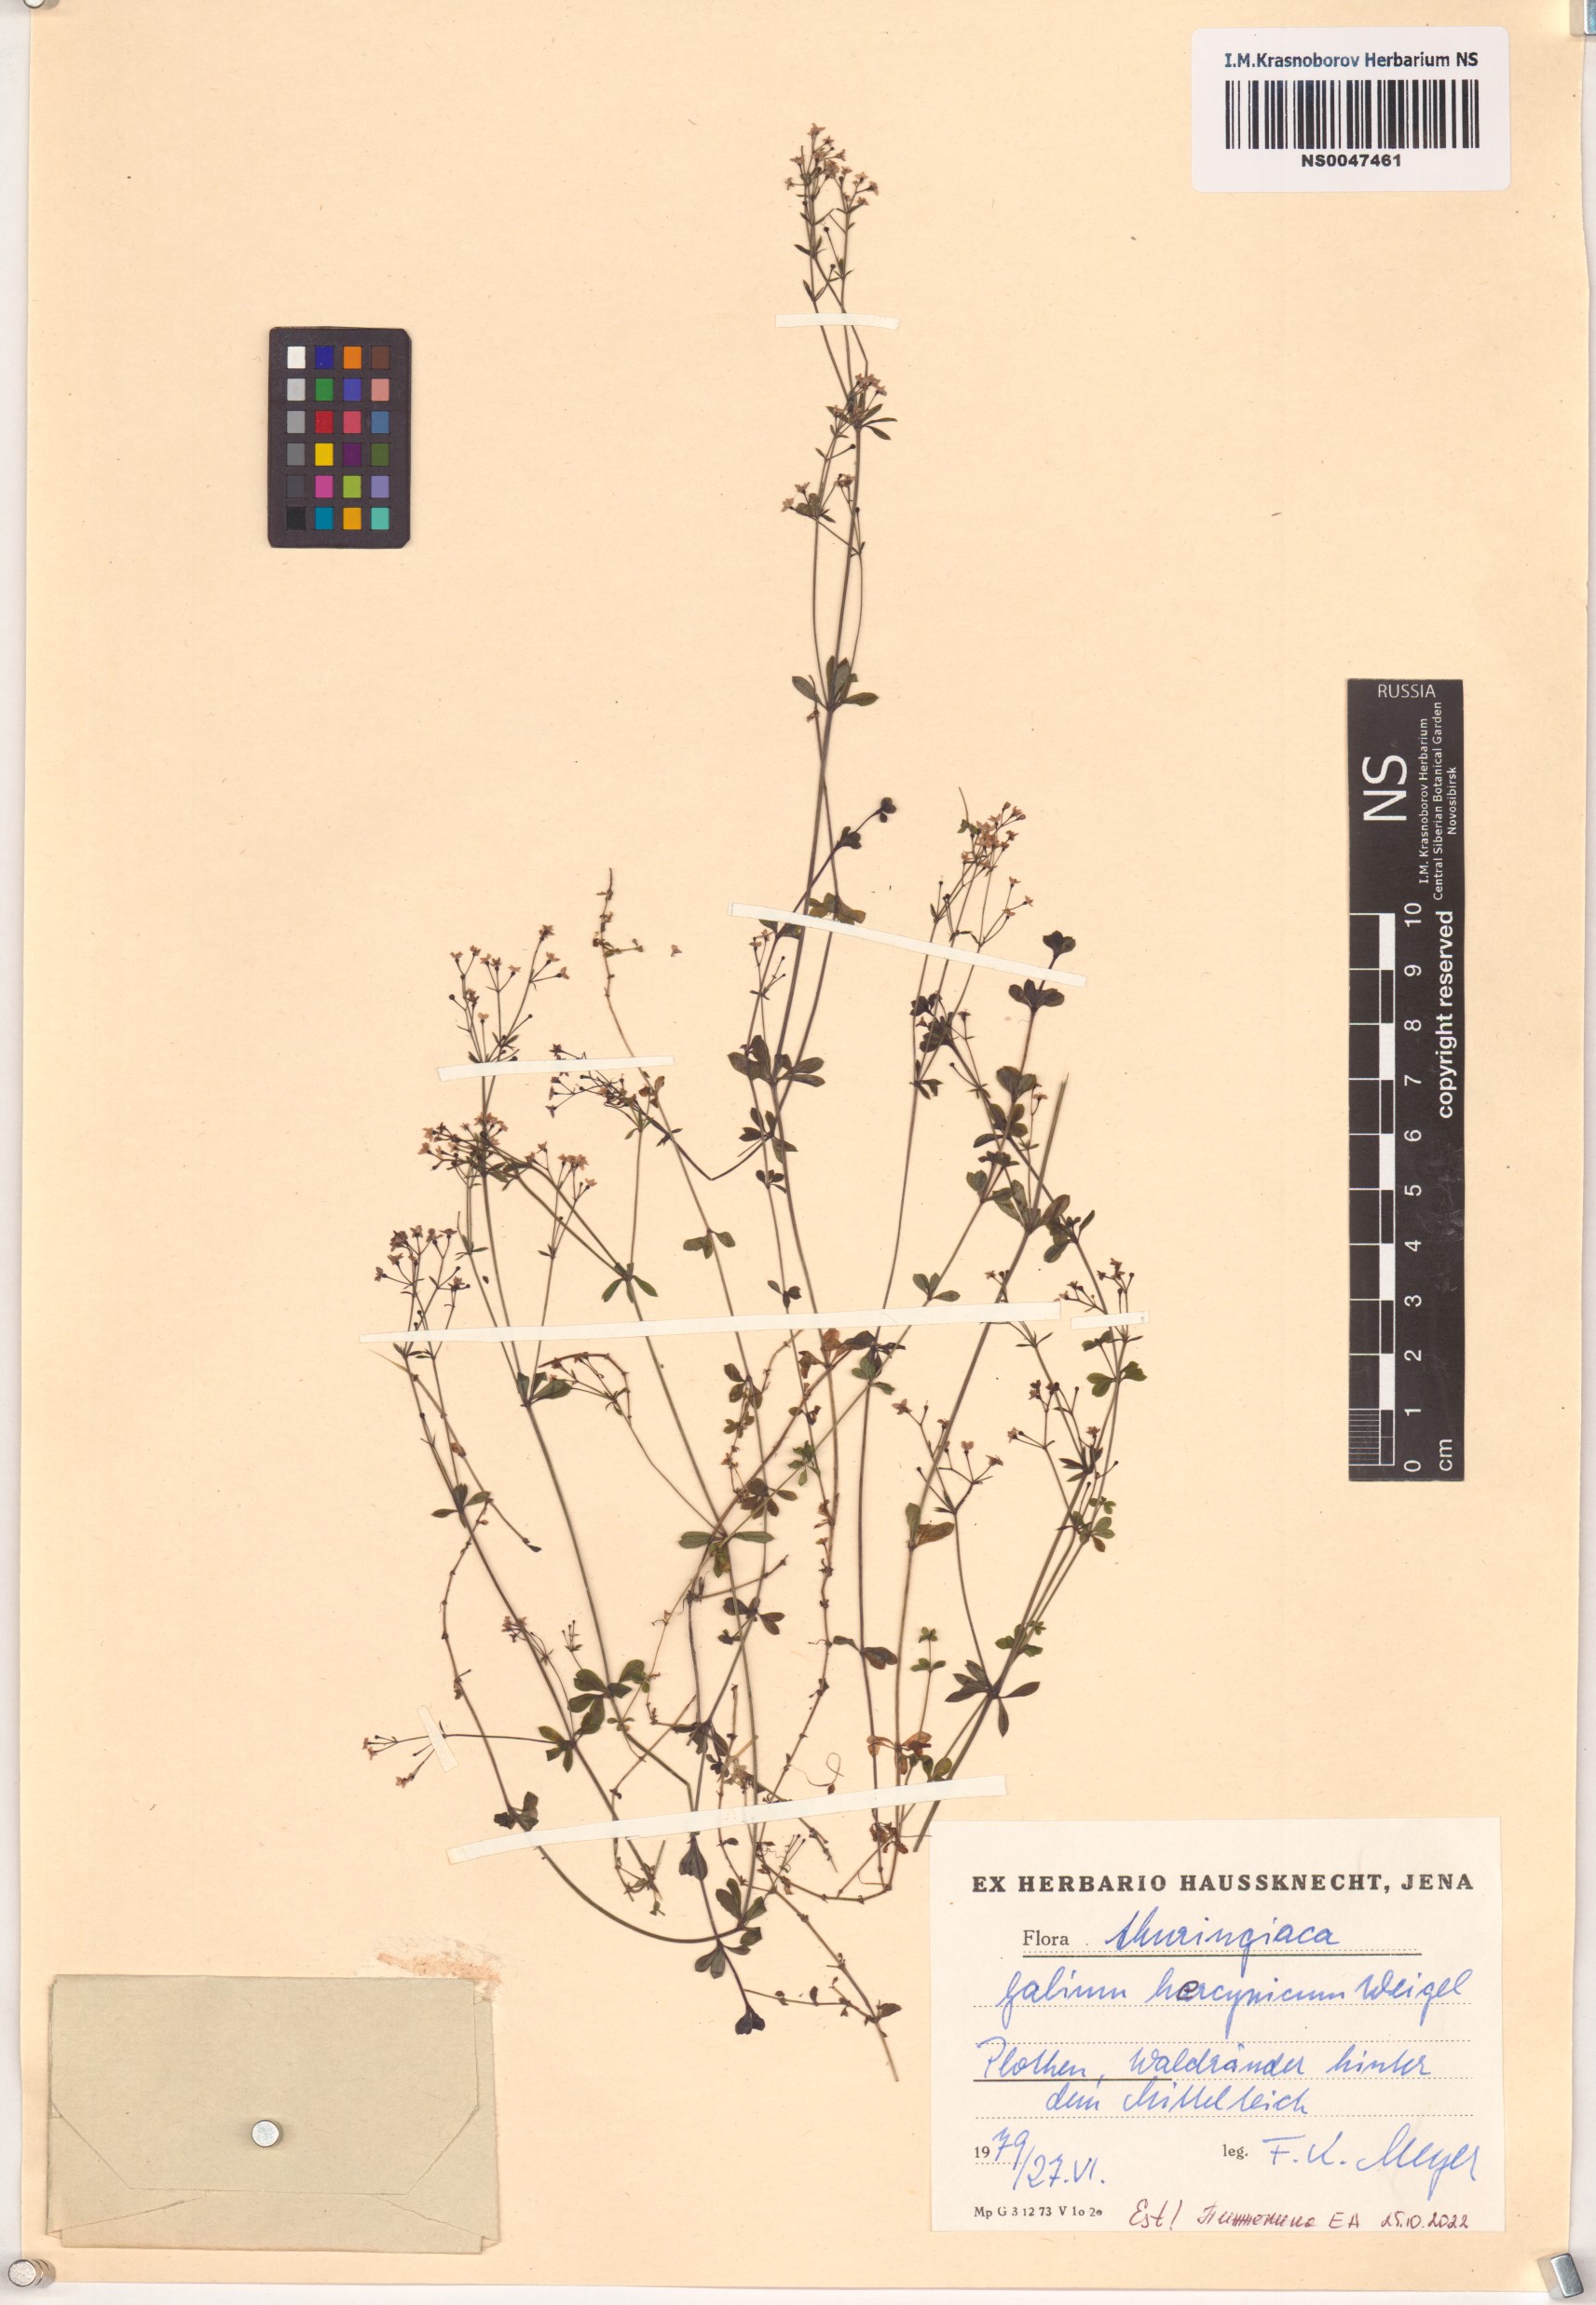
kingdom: Plantae
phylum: Tracheophyta
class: Magnoliopsida
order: Gentianales
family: Rubiaceae
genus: Galium
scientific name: Galium saxatile
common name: Heath bedstraw
